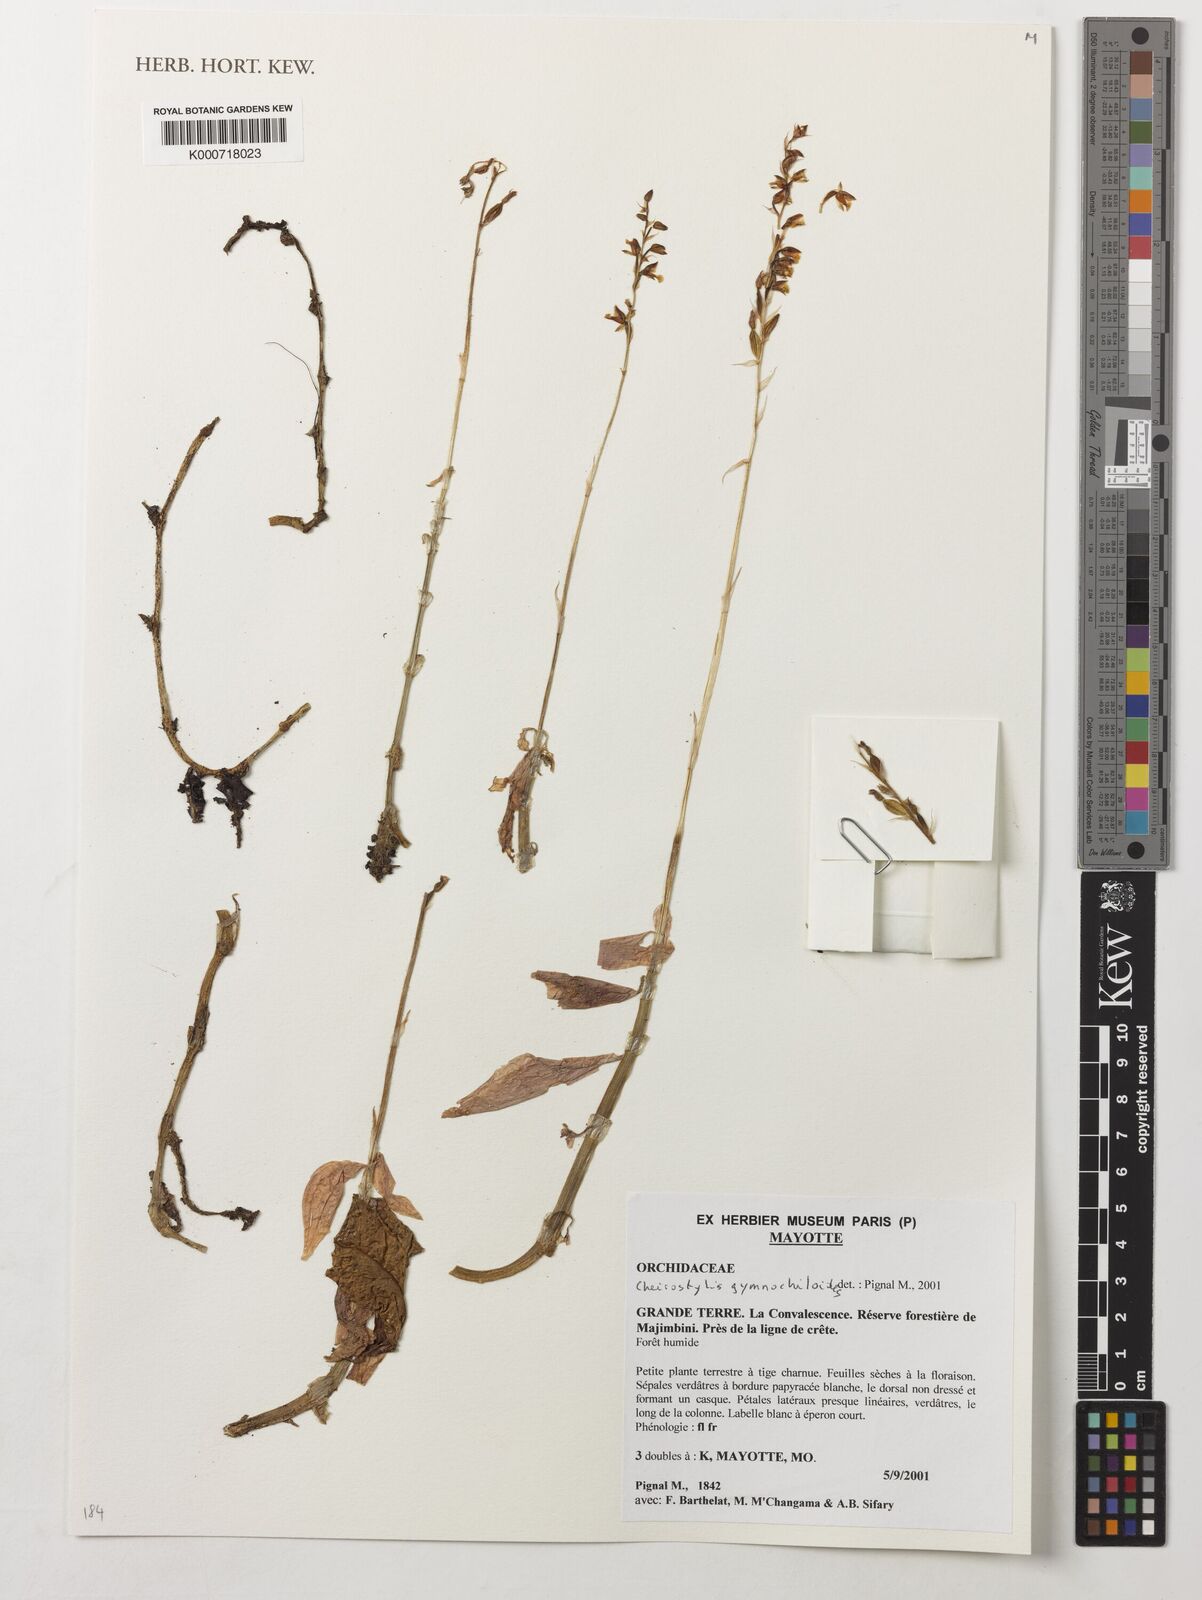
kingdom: Plantae
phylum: Tracheophyta
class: Liliopsida
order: Asparagales
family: Orchidaceae
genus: Cheirostylis
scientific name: Cheirostylis nuda
